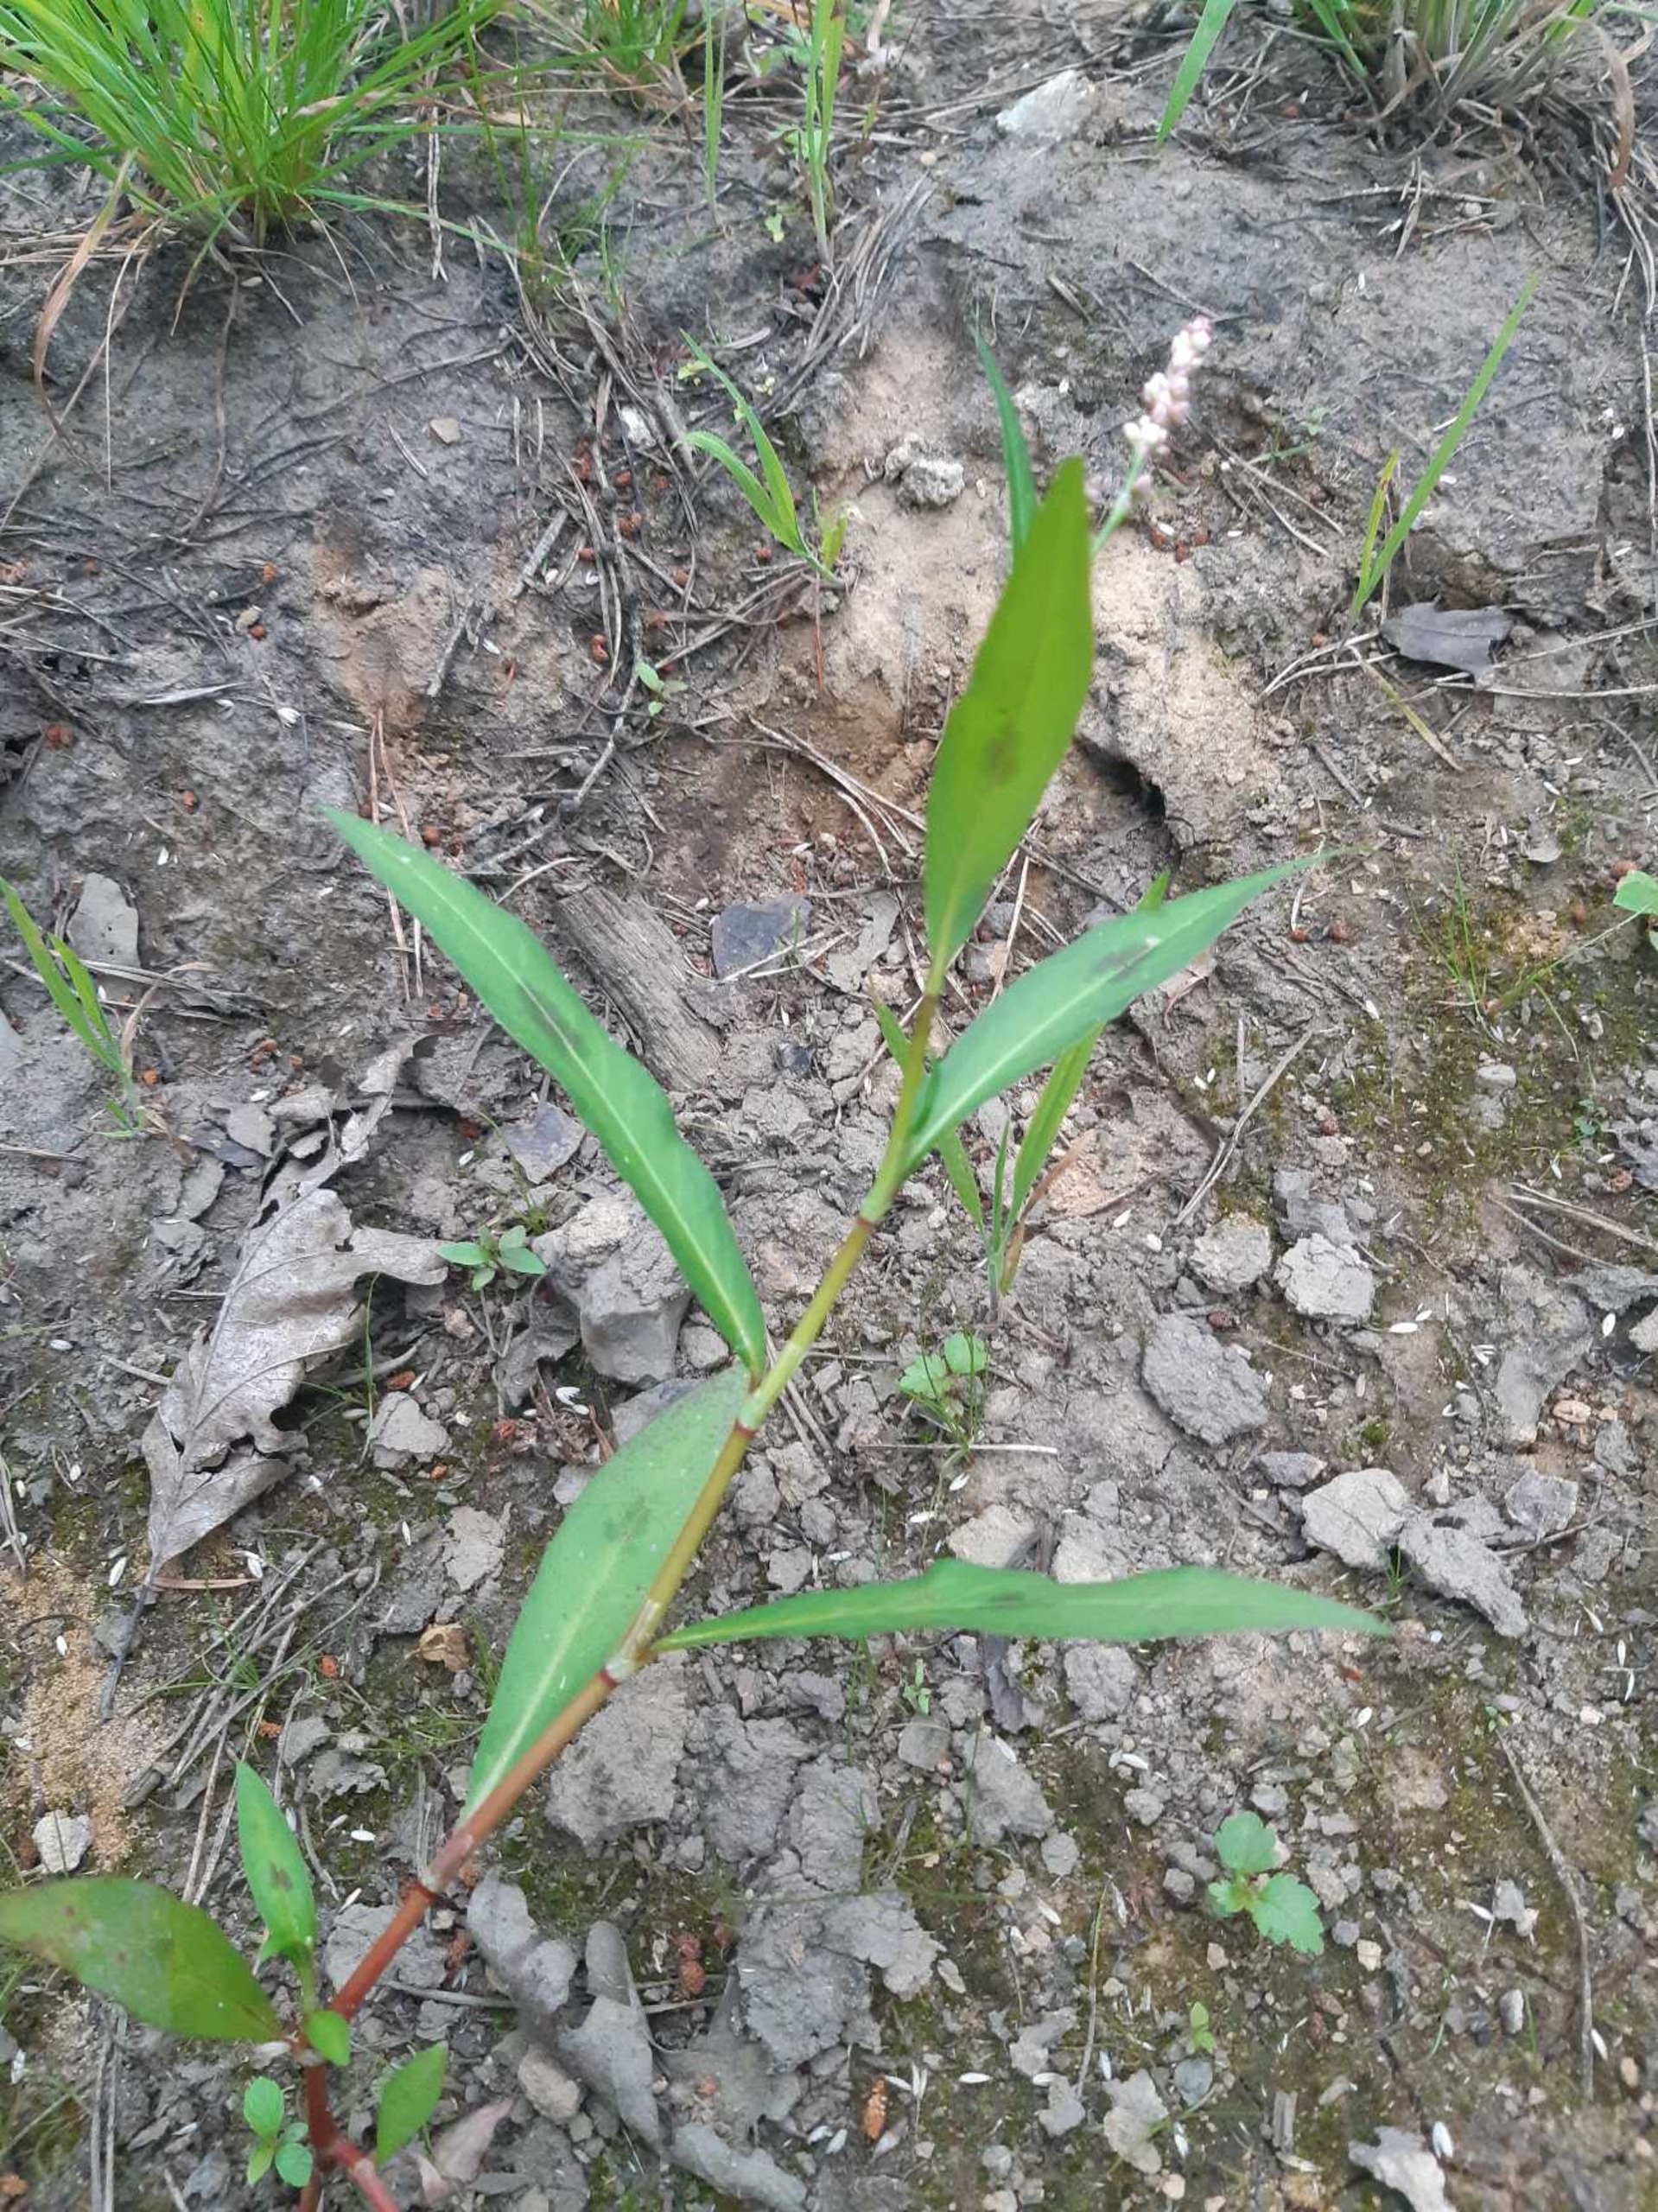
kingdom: Plantae
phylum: Tracheophyta
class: Magnoliopsida
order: Caryophyllales
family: Polygonaceae
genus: Persicaria
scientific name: Persicaria maculosa
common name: Fersken-pileurt
